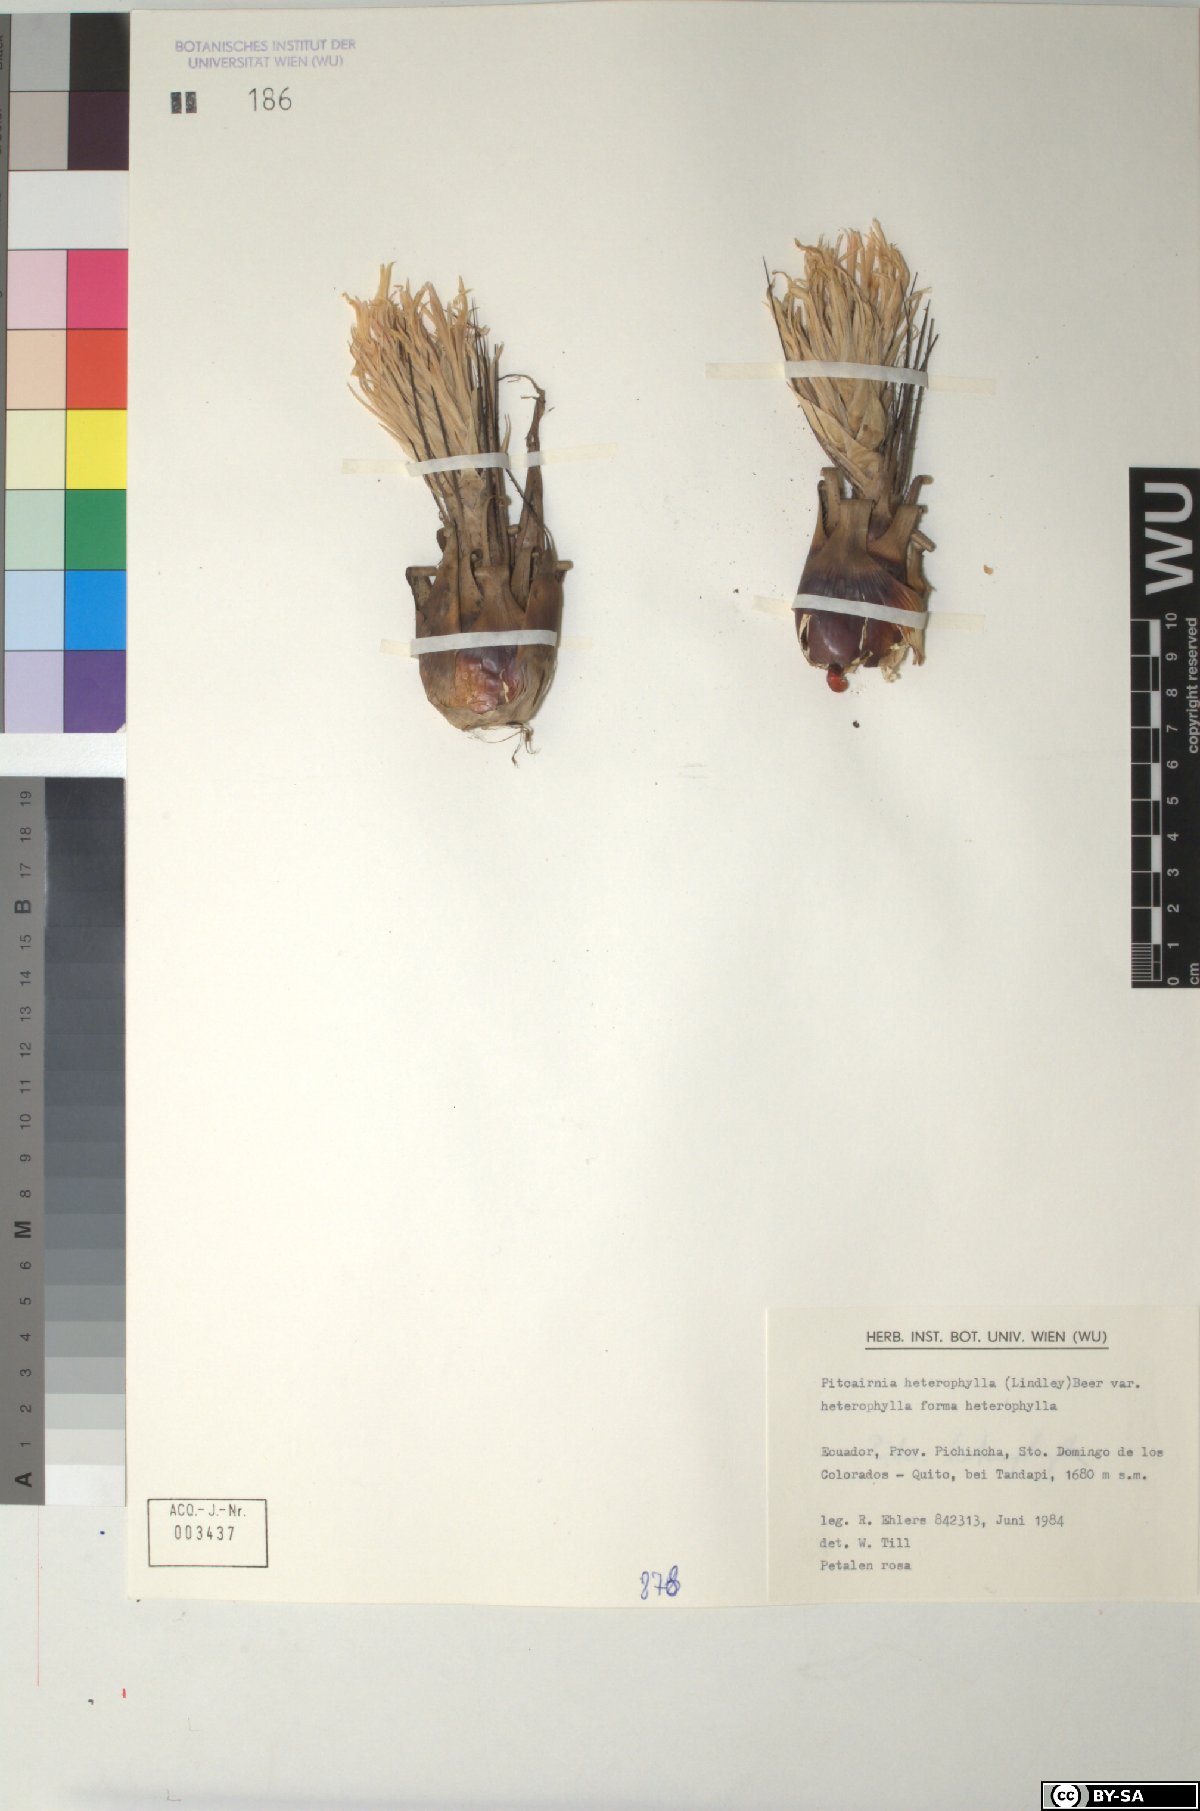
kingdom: Plantae
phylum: Tracheophyta
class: Liliopsida
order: Poales
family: Bromeliaceae
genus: Pitcairnia
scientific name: Pitcairnia heterophylla
